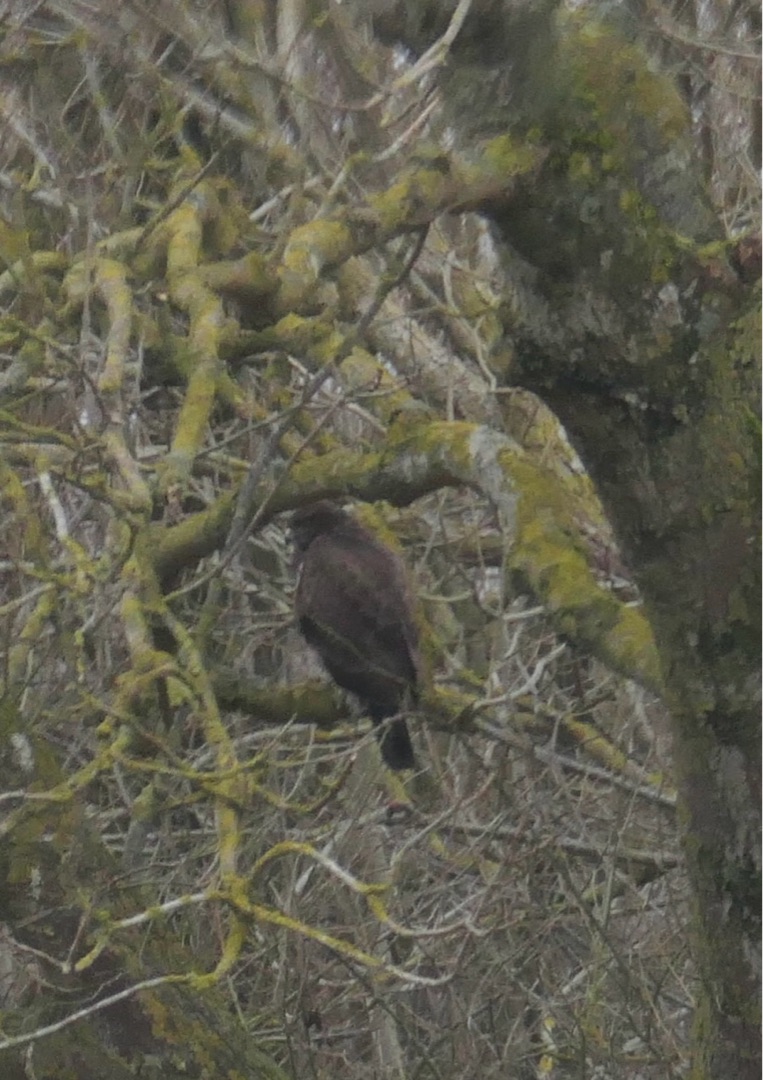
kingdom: Animalia
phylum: Chordata
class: Aves
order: Accipitriformes
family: Accipitridae
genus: Buteo
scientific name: Buteo buteo
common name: Musvåge
